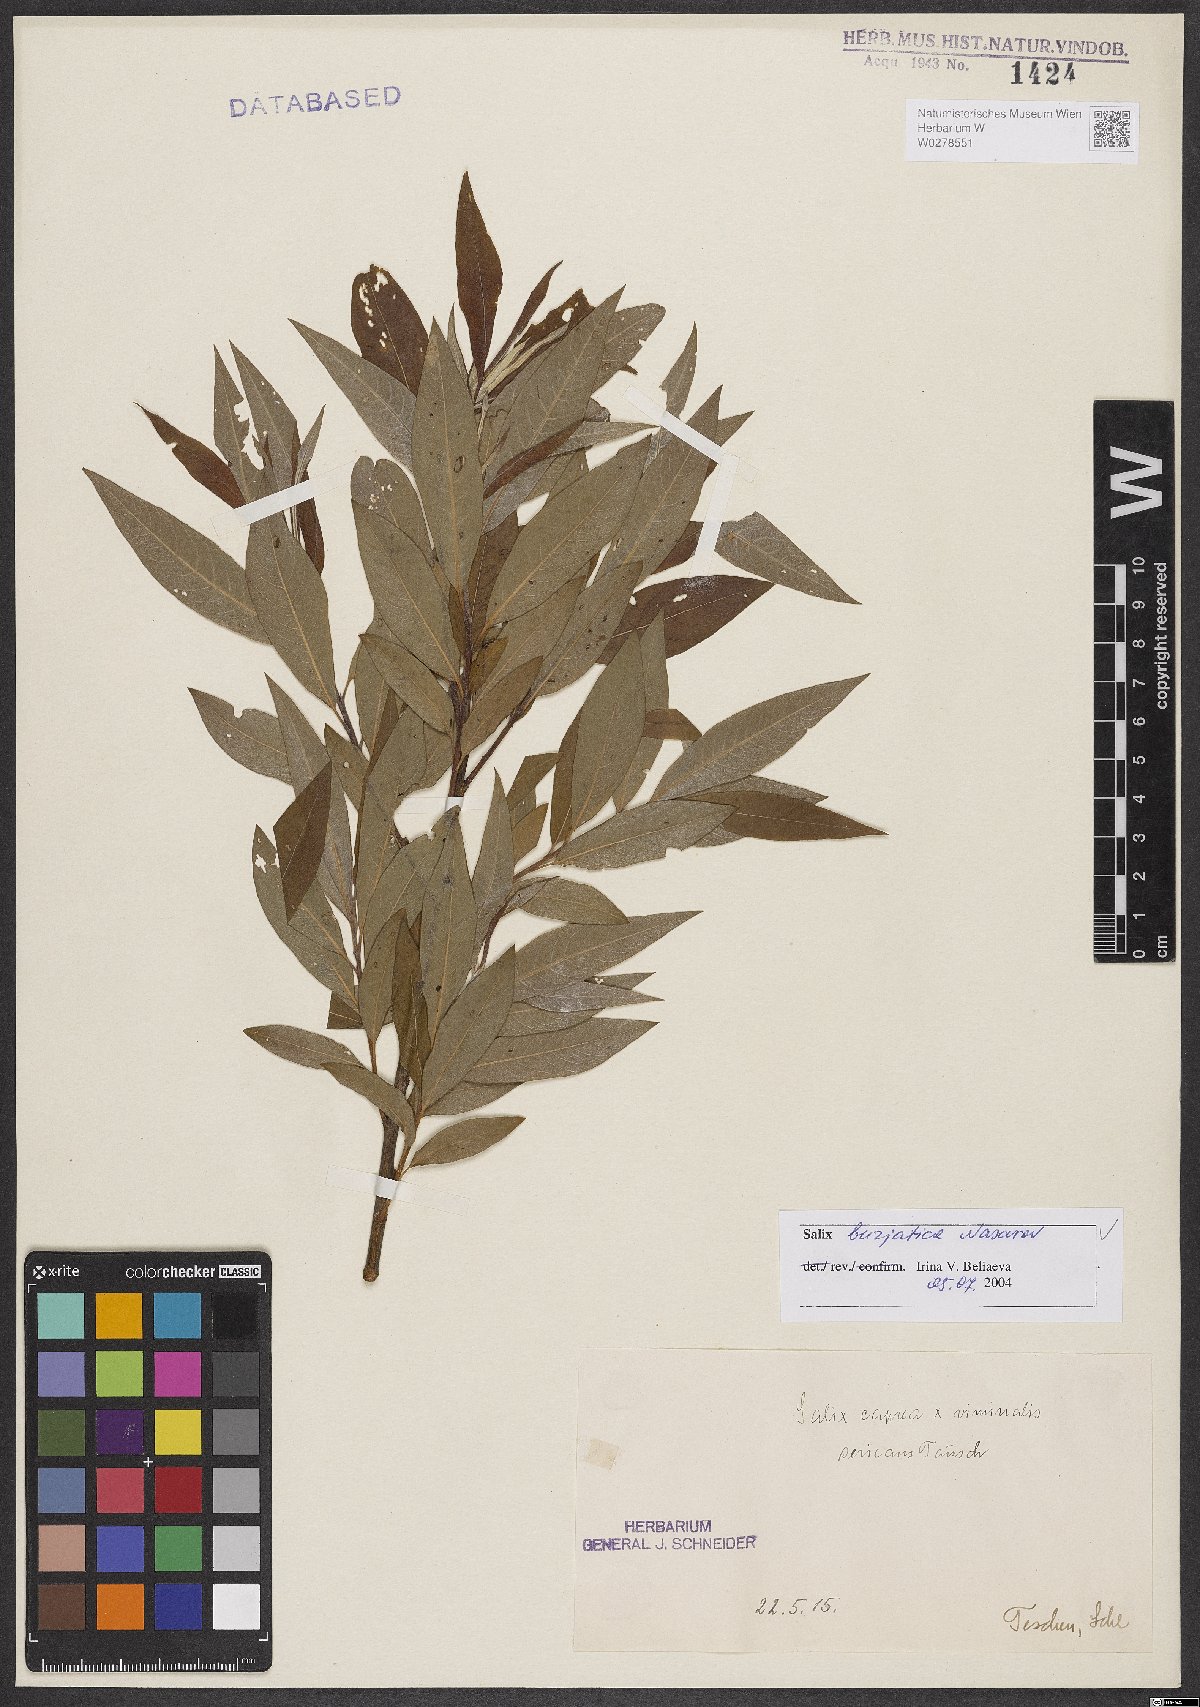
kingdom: Plantae
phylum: Tracheophyta
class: Magnoliopsida
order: Malpighiales
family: Salicaceae
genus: Salix
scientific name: Salix gmelinii
